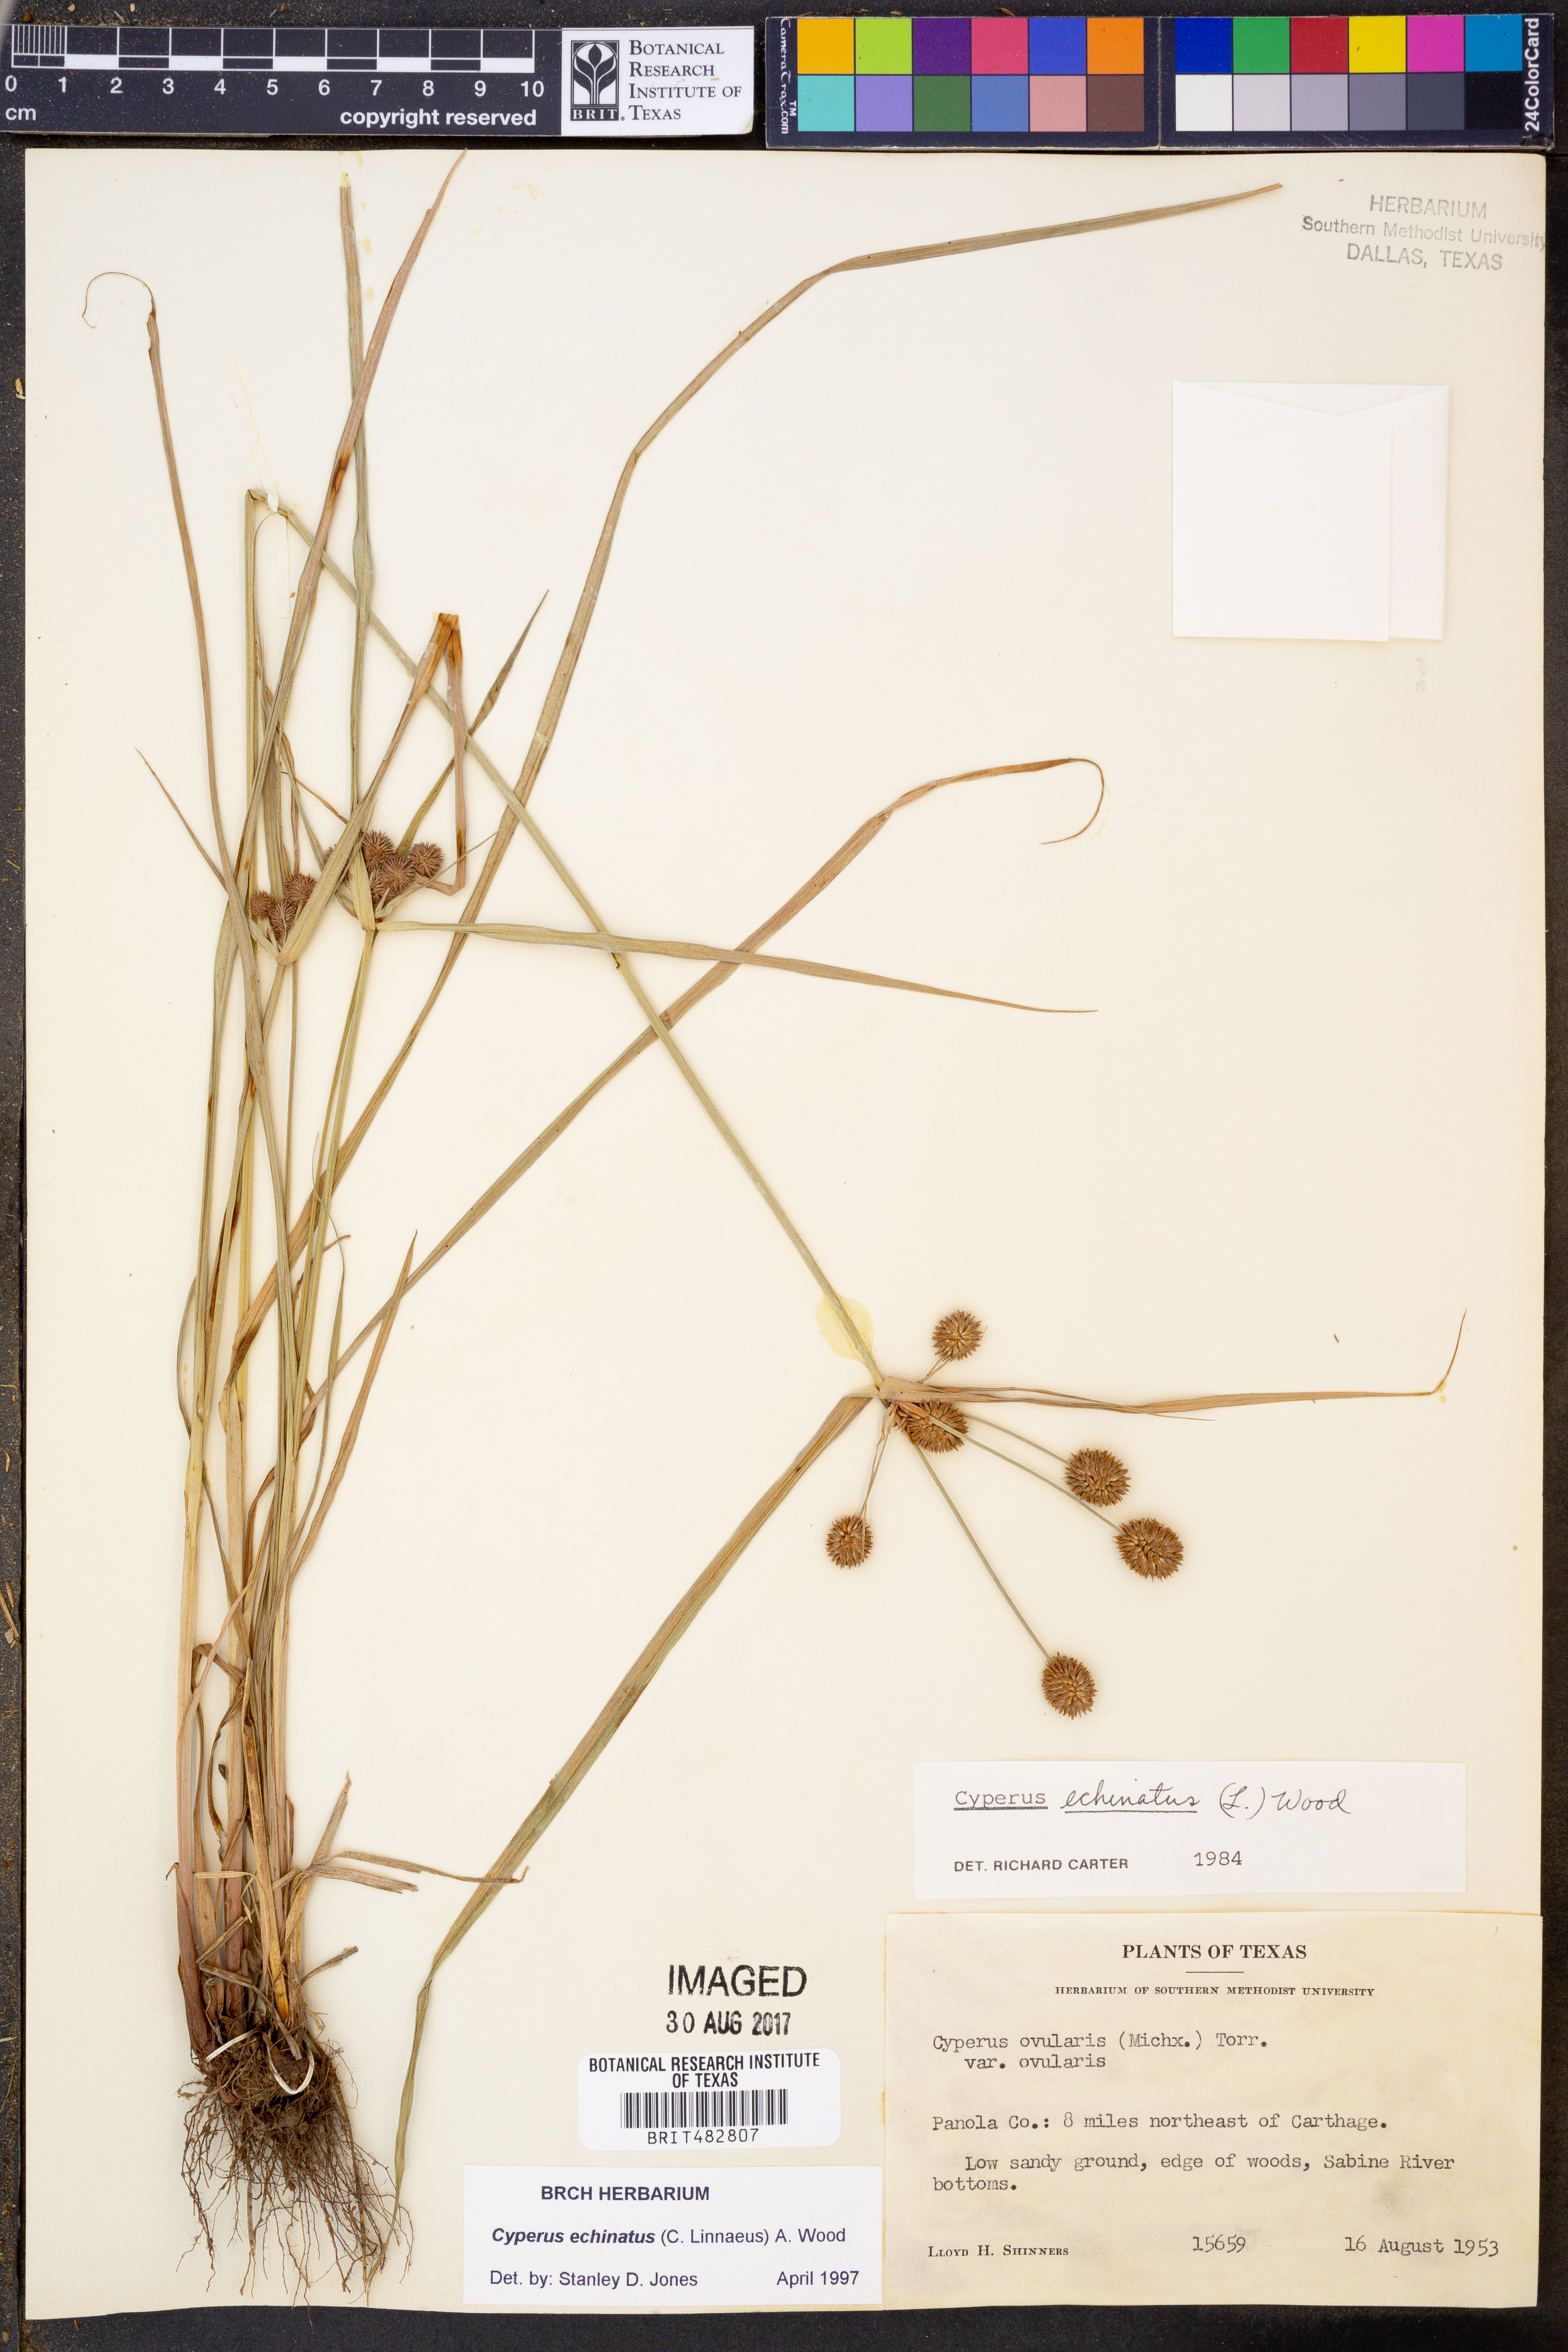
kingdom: Plantae
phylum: Tracheophyta
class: Liliopsida
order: Poales
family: Cyperaceae
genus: Cyperus
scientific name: Cyperus echinatus
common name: Teasel sedge
